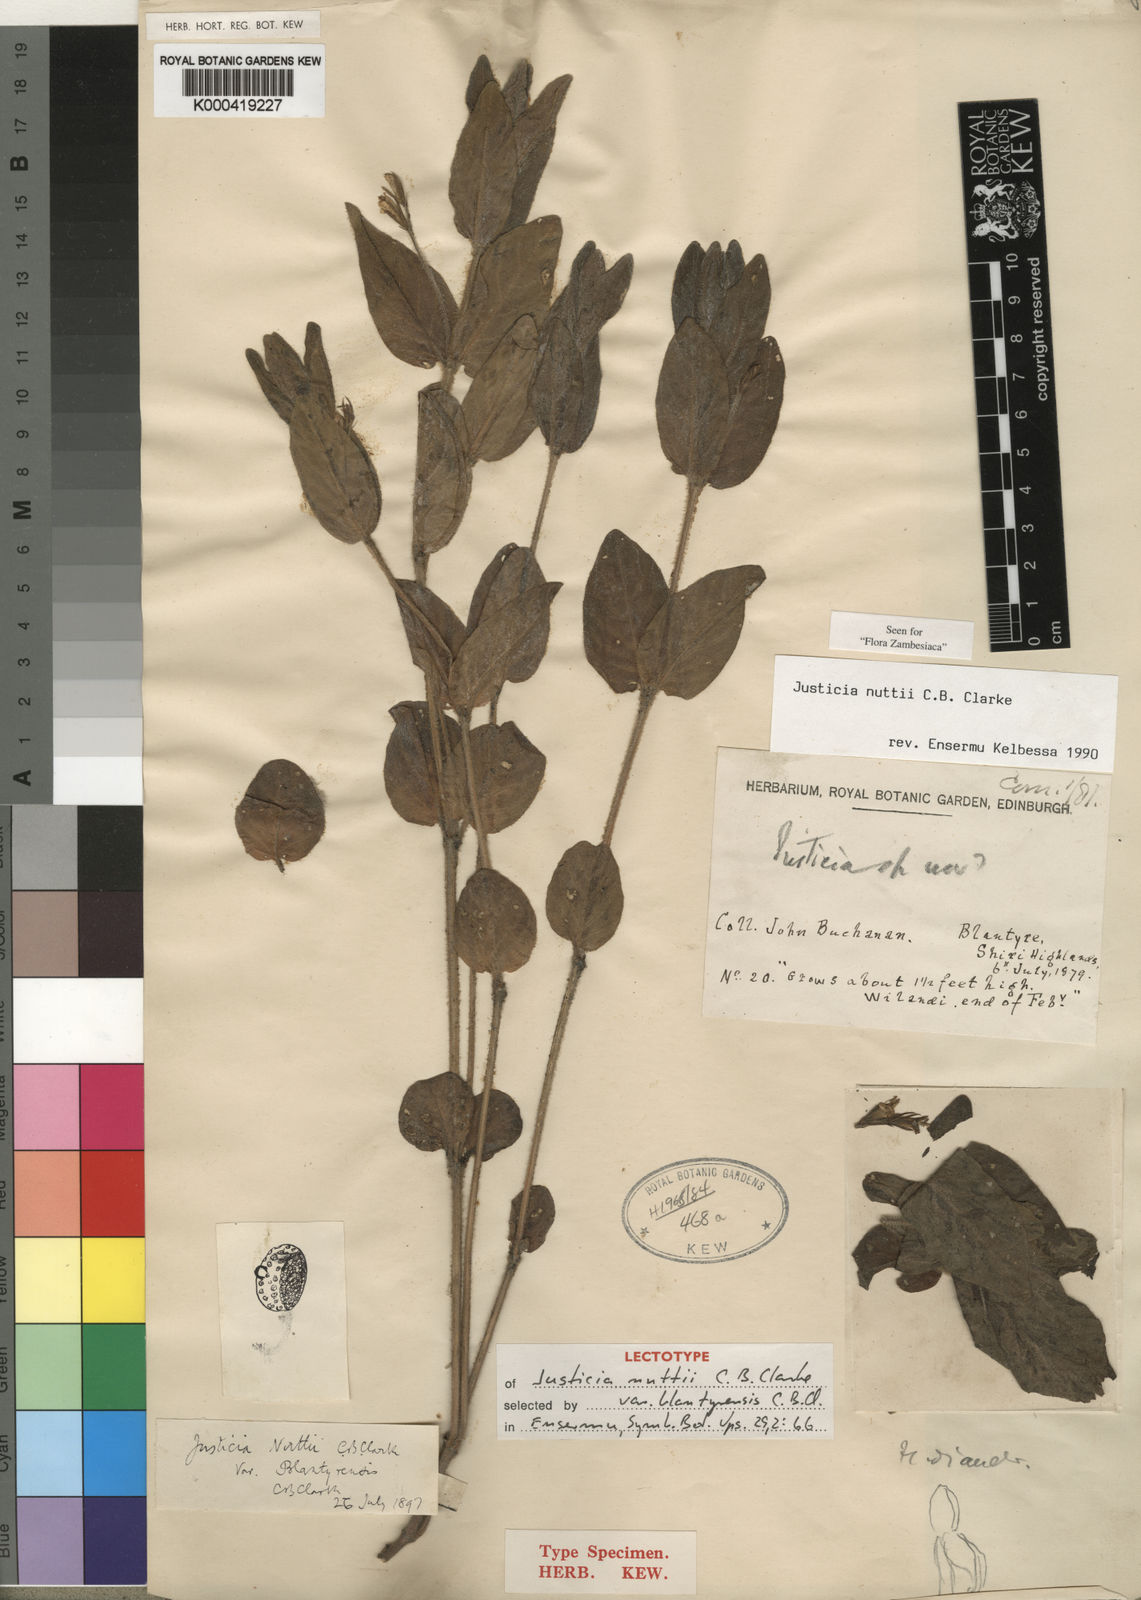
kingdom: Plantae
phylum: Tracheophyta
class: Magnoliopsida
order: Lamiales
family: Acanthaceae
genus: Justicia
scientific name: Justicia nuttii
